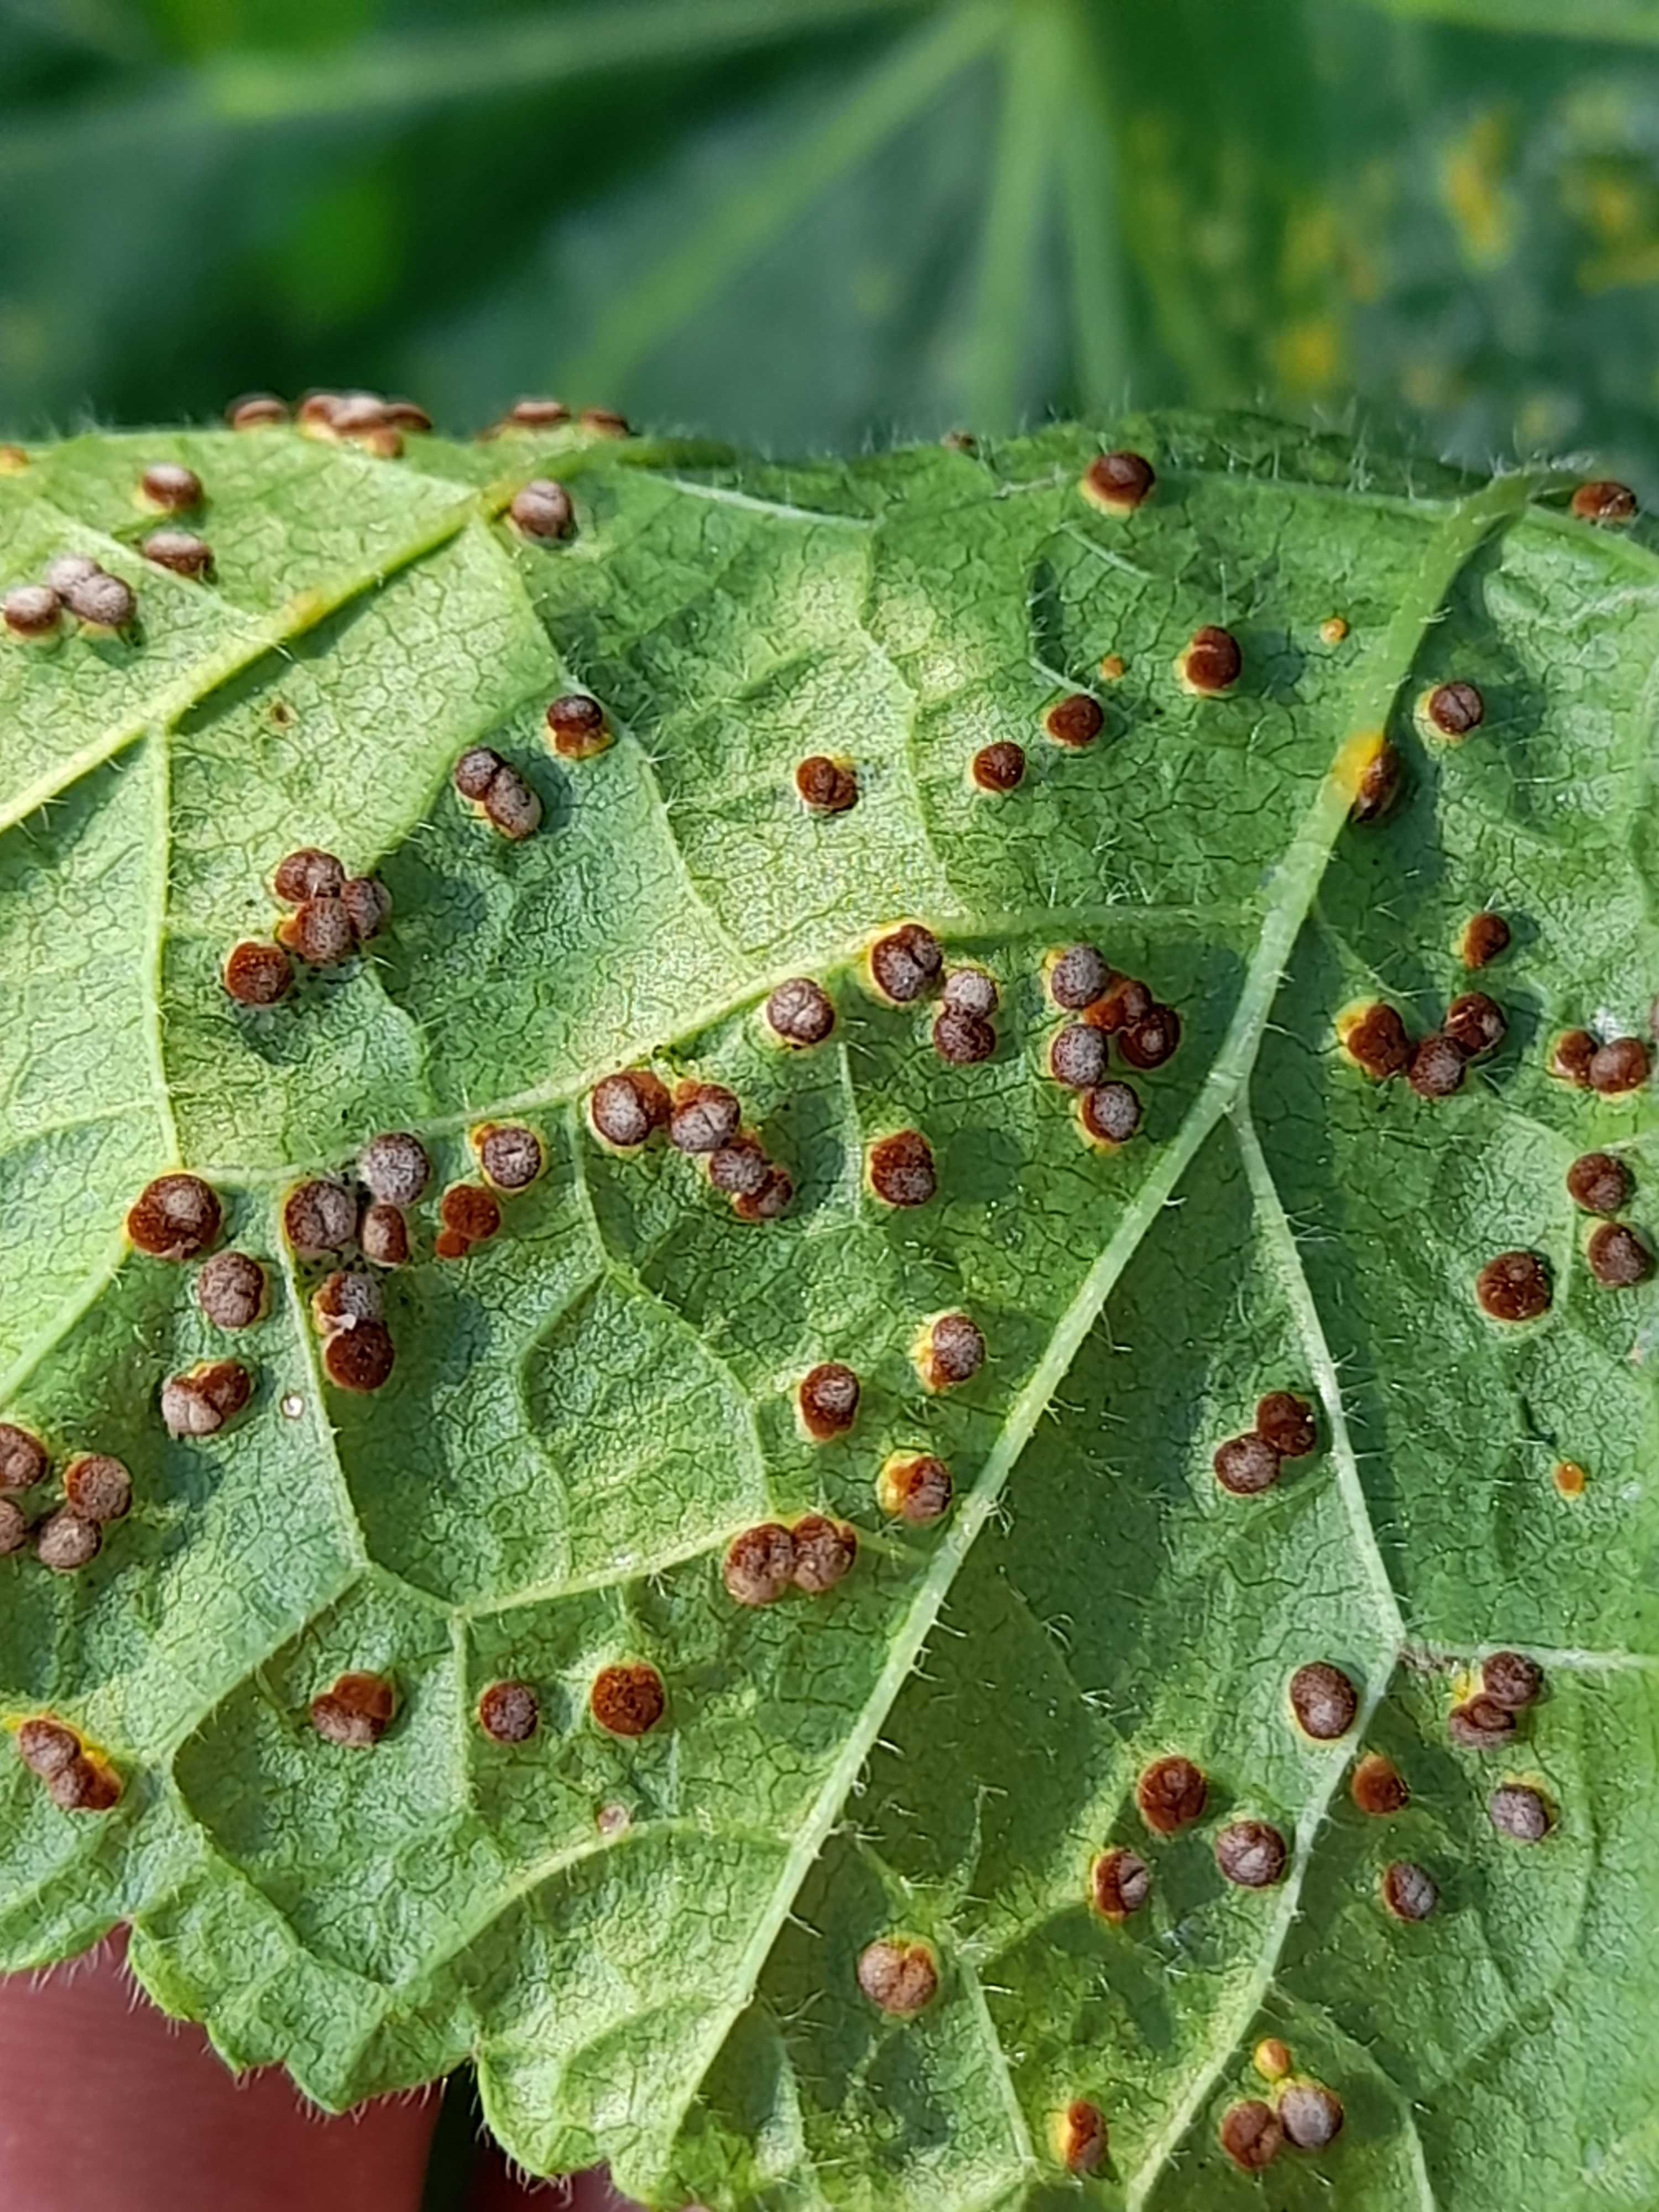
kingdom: Fungi
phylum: Basidiomycota
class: Pucciniomycetes
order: Pucciniales
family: Pucciniaceae
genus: Puccinia
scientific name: Puccinia malvacearum
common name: stokrose-tvecellerust
